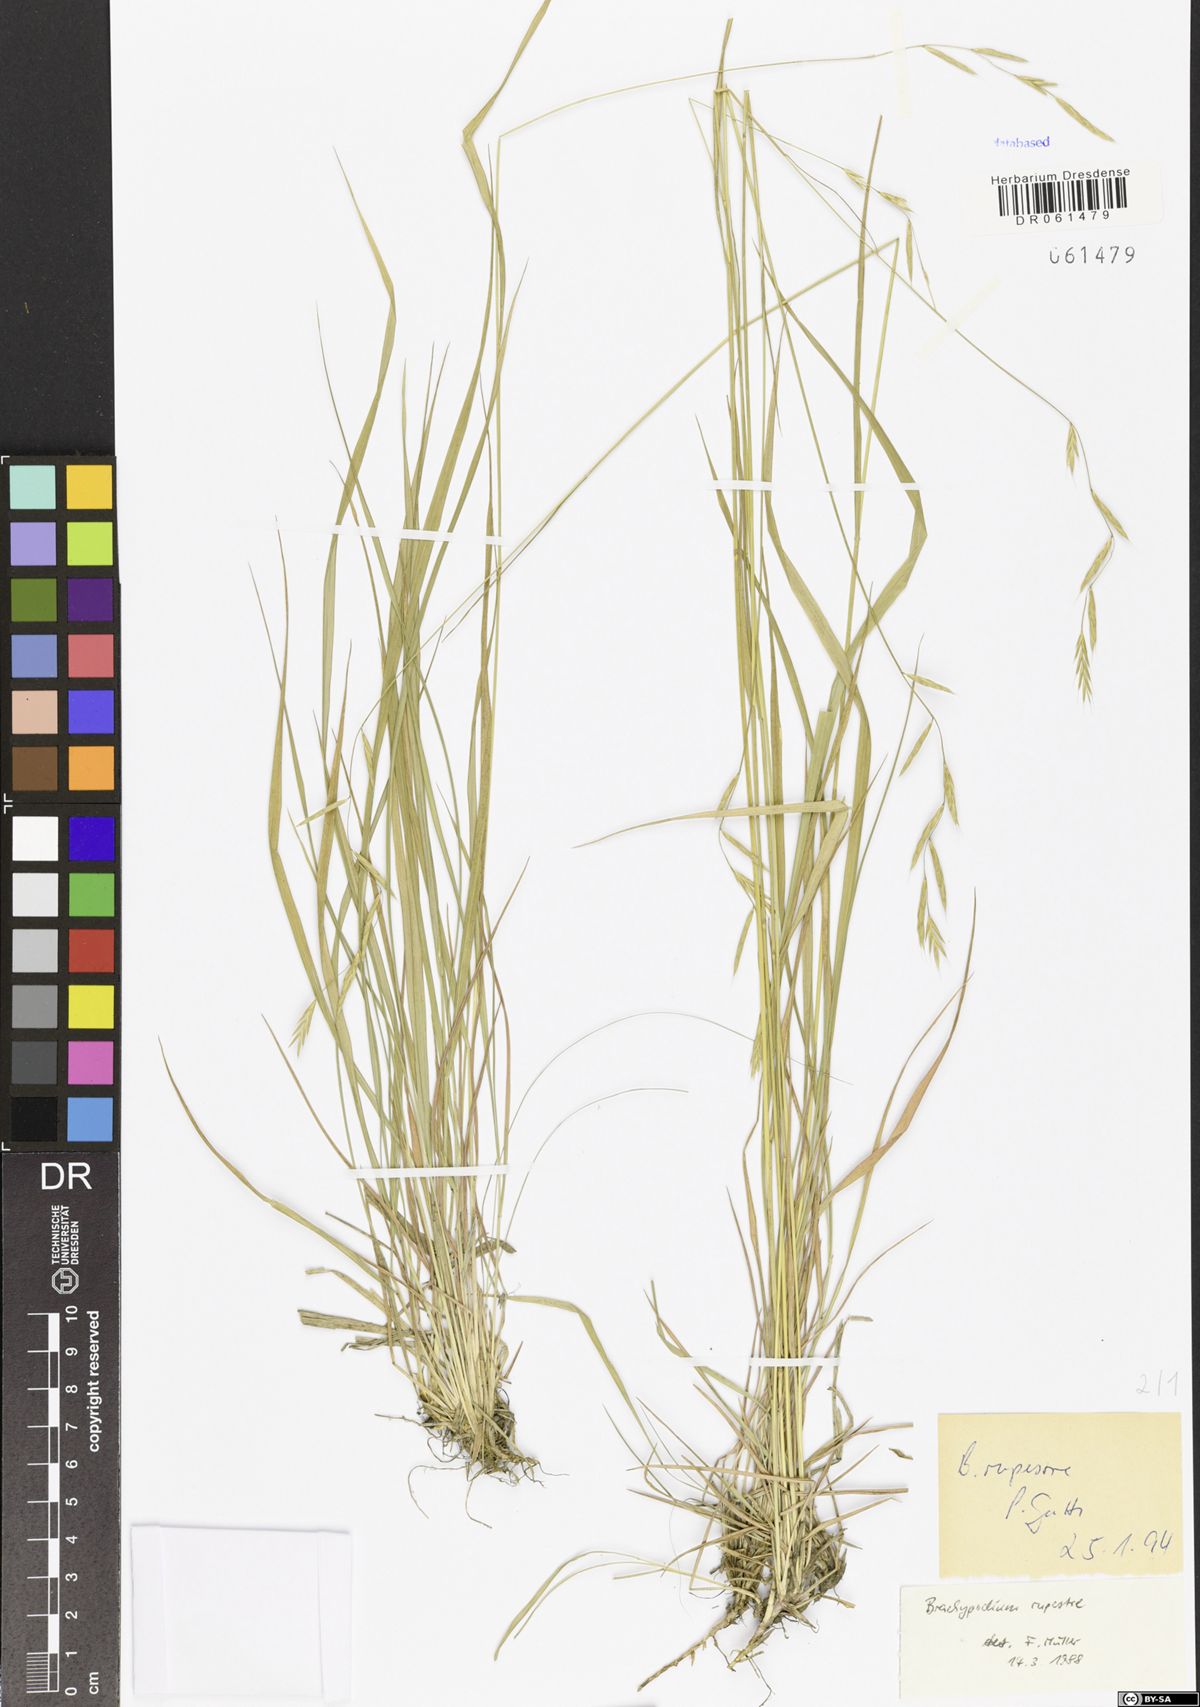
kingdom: Plantae
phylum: Tracheophyta
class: Liliopsida
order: Poales
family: Poaceae
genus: Brachypodium
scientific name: Brachypodium pinnatum
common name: Tor grass
